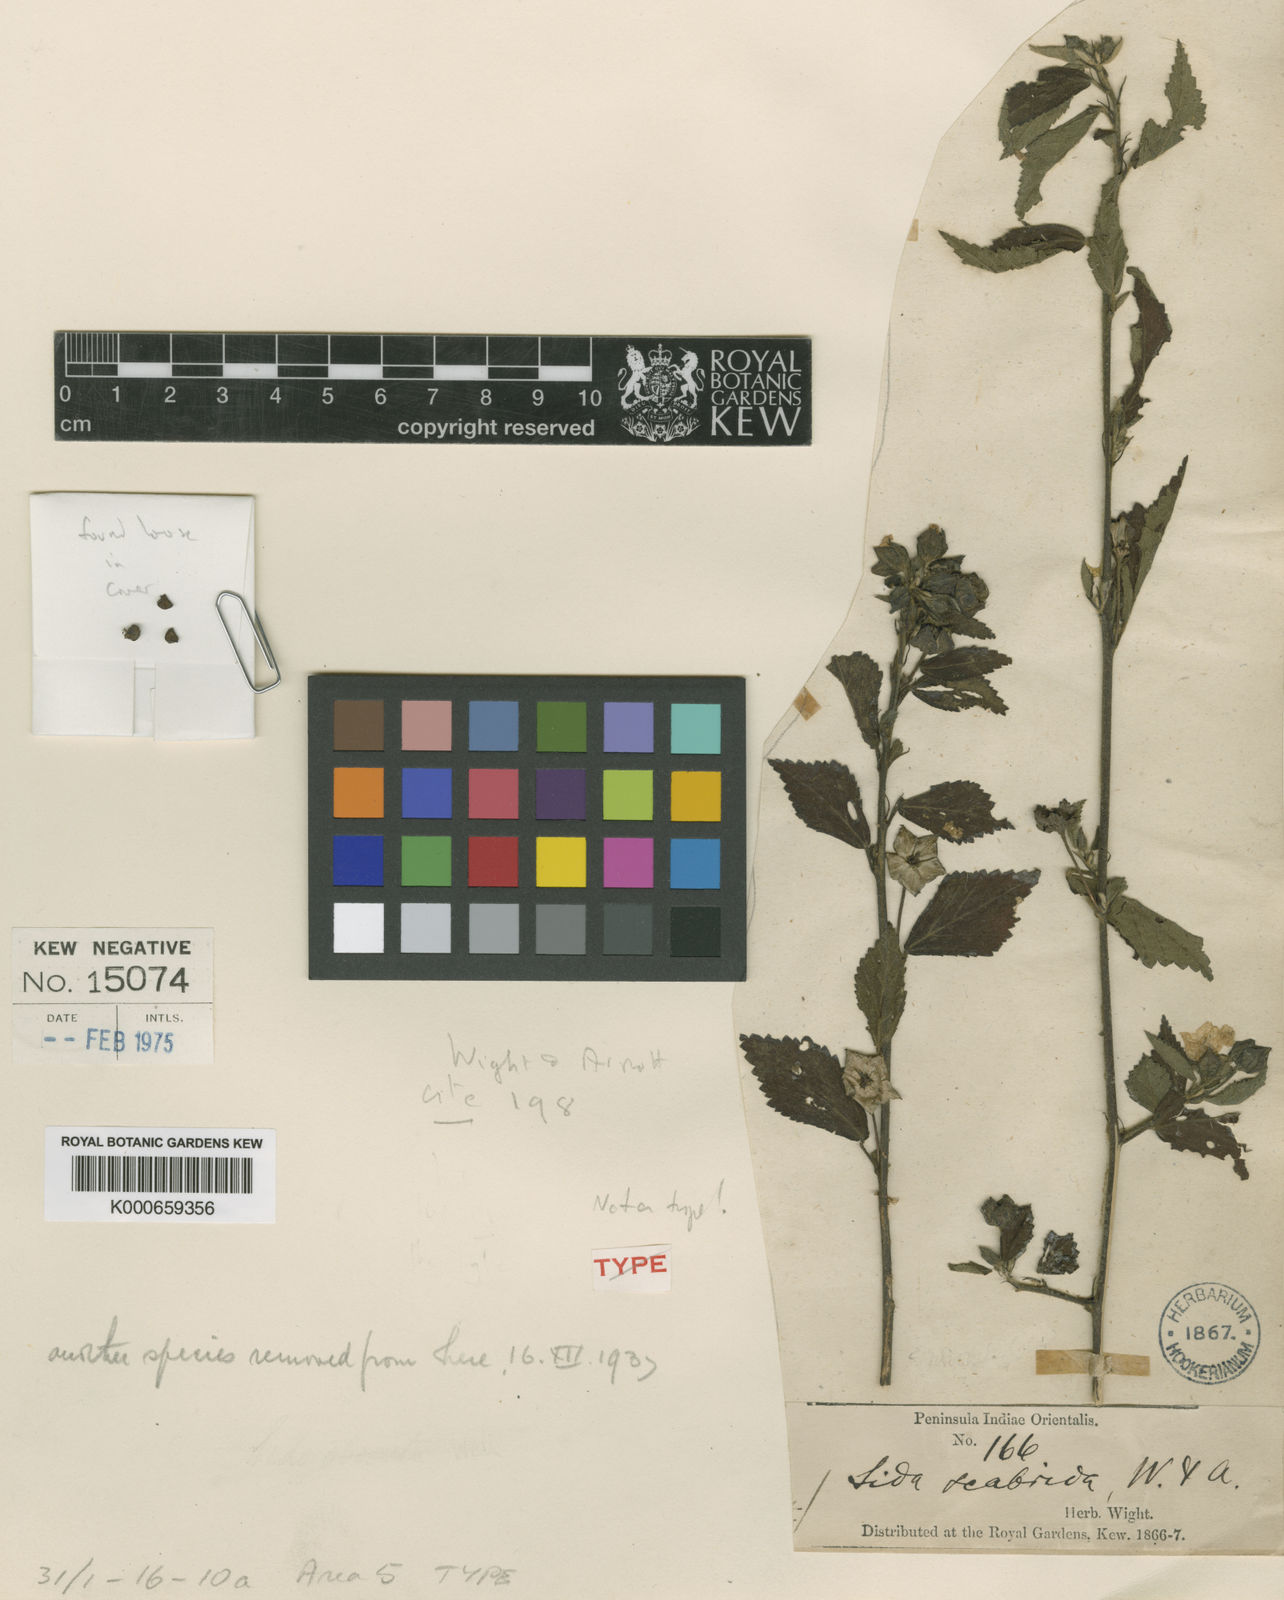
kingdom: Plantae
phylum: Tracheophyta
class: Magnoliopsida
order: Malvales
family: Malvaceae
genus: Sida
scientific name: Sida rhombifolia
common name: Queensland-hemp
